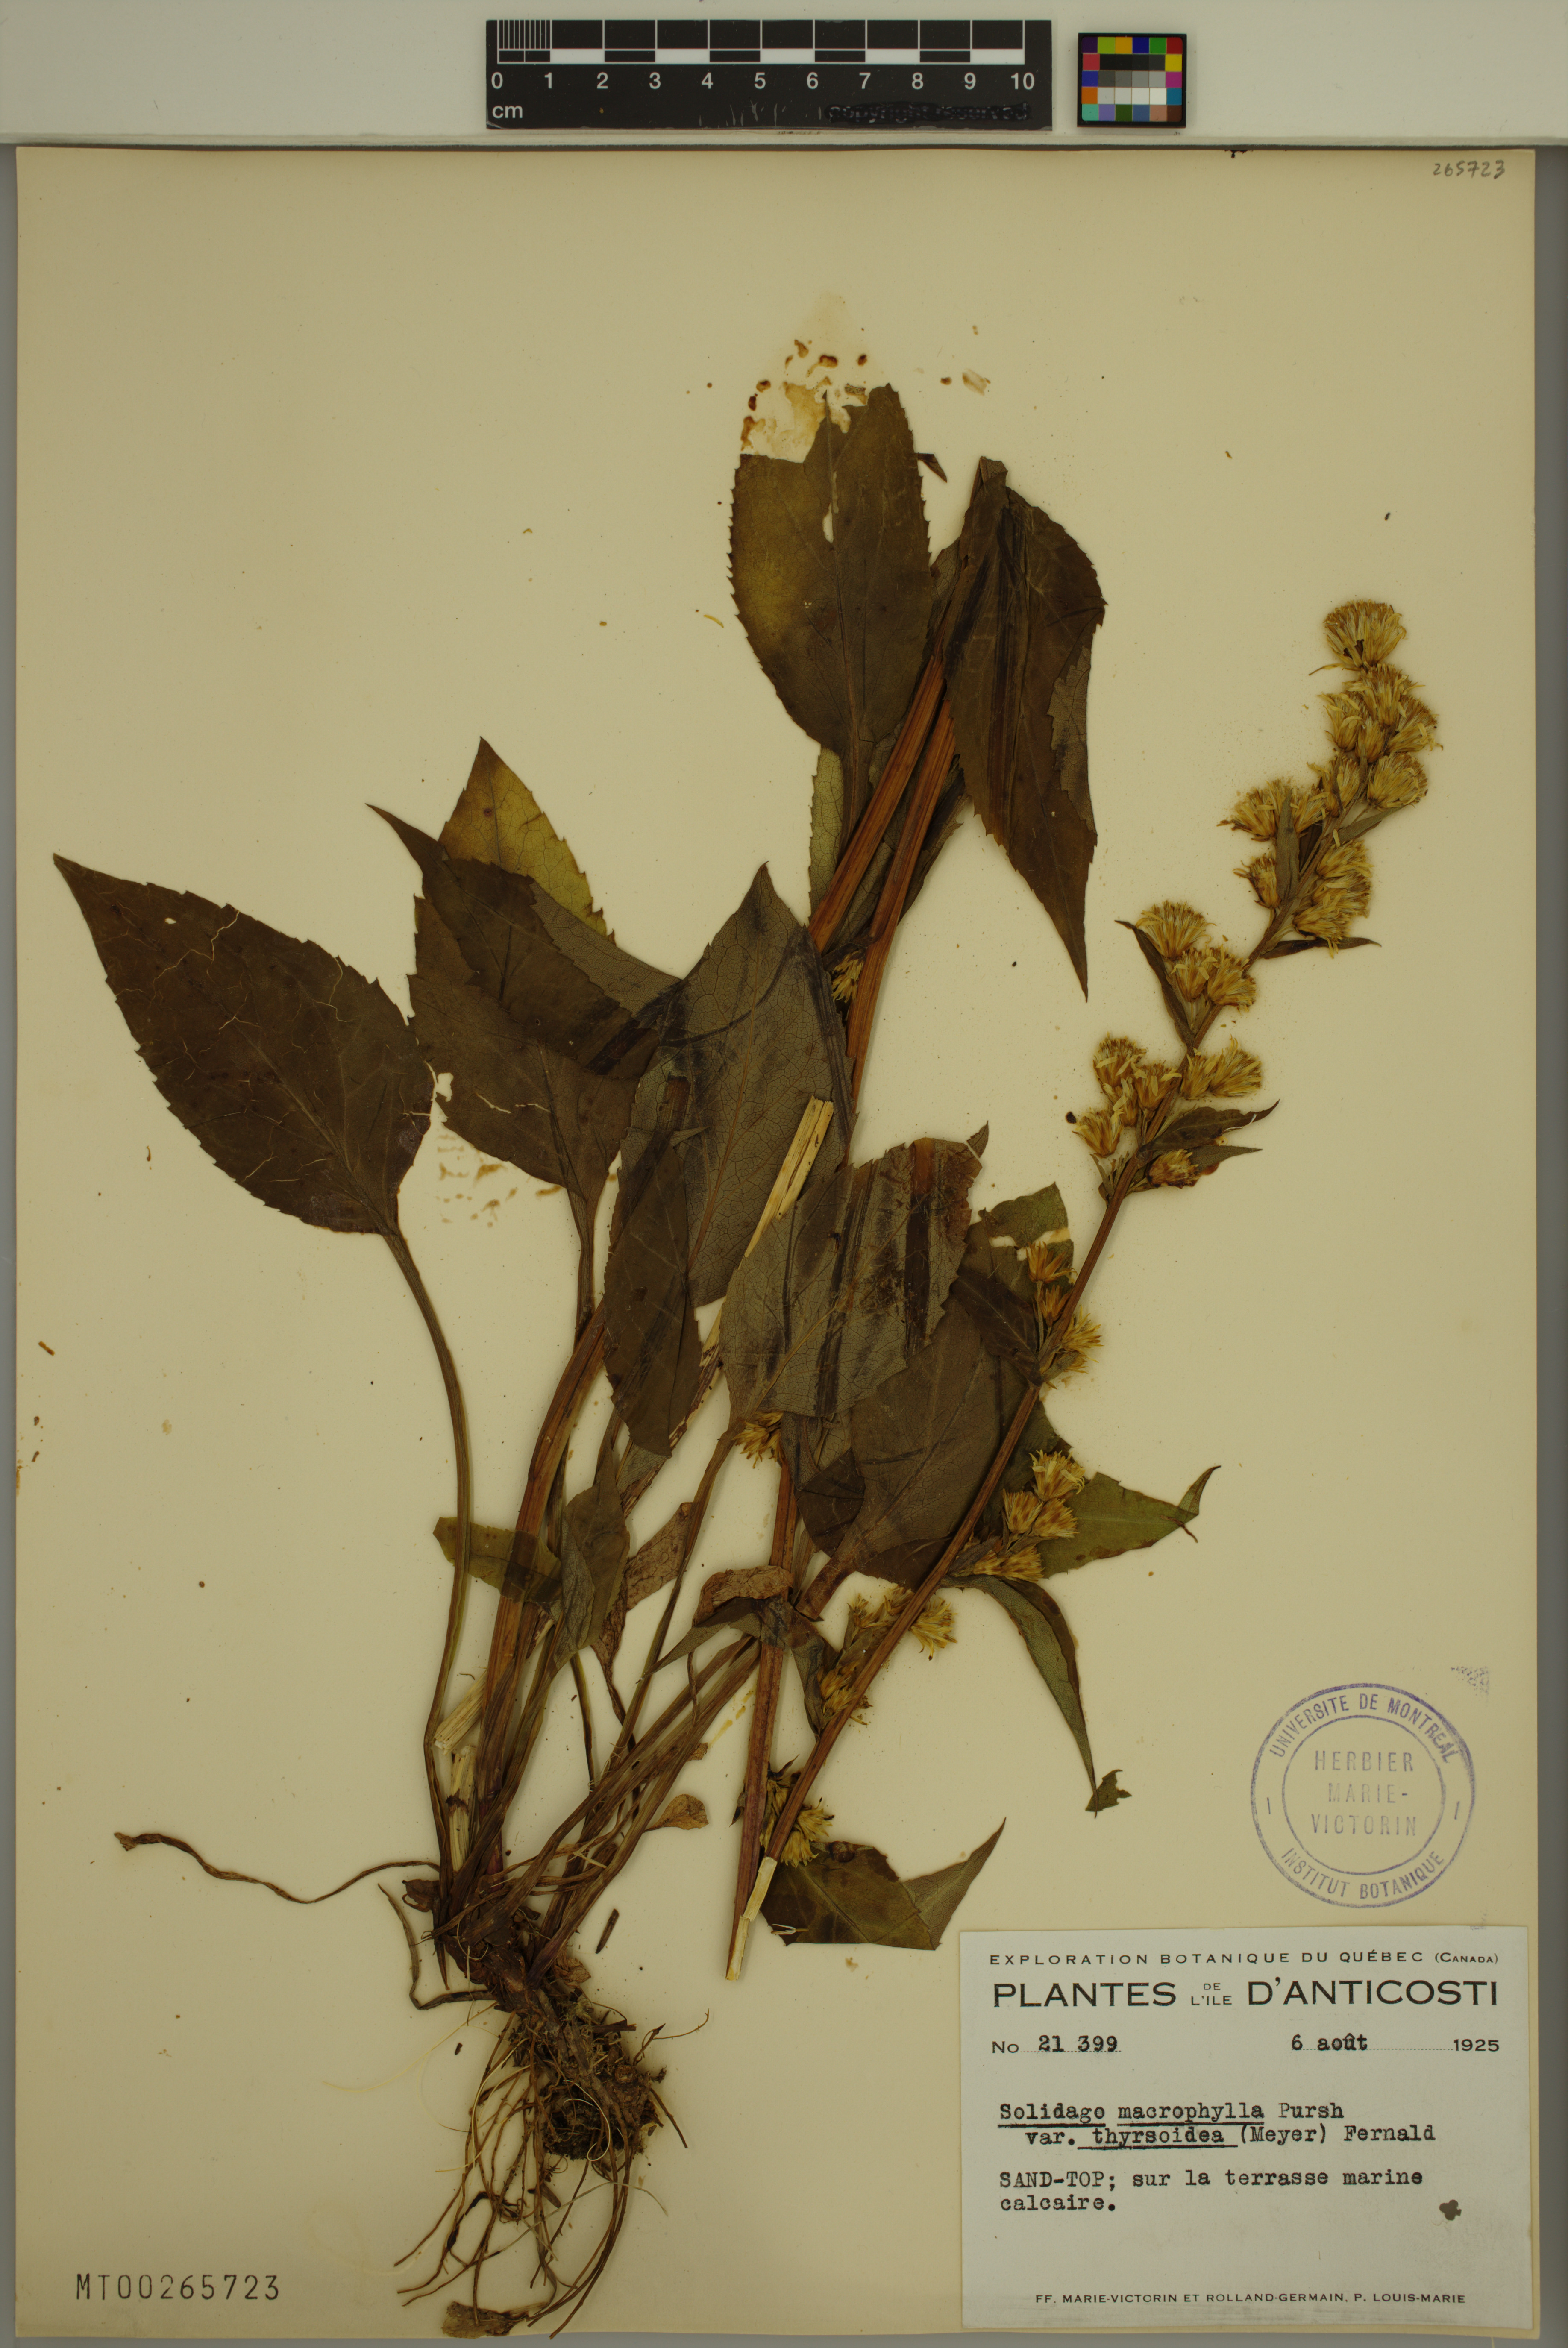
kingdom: Plantae
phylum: Tracheophyta
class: Magnoliopsida
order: Asterales
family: Asteraceae
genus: Solidago
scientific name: Solidago macrophylla
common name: Large-leaved goldenrod
